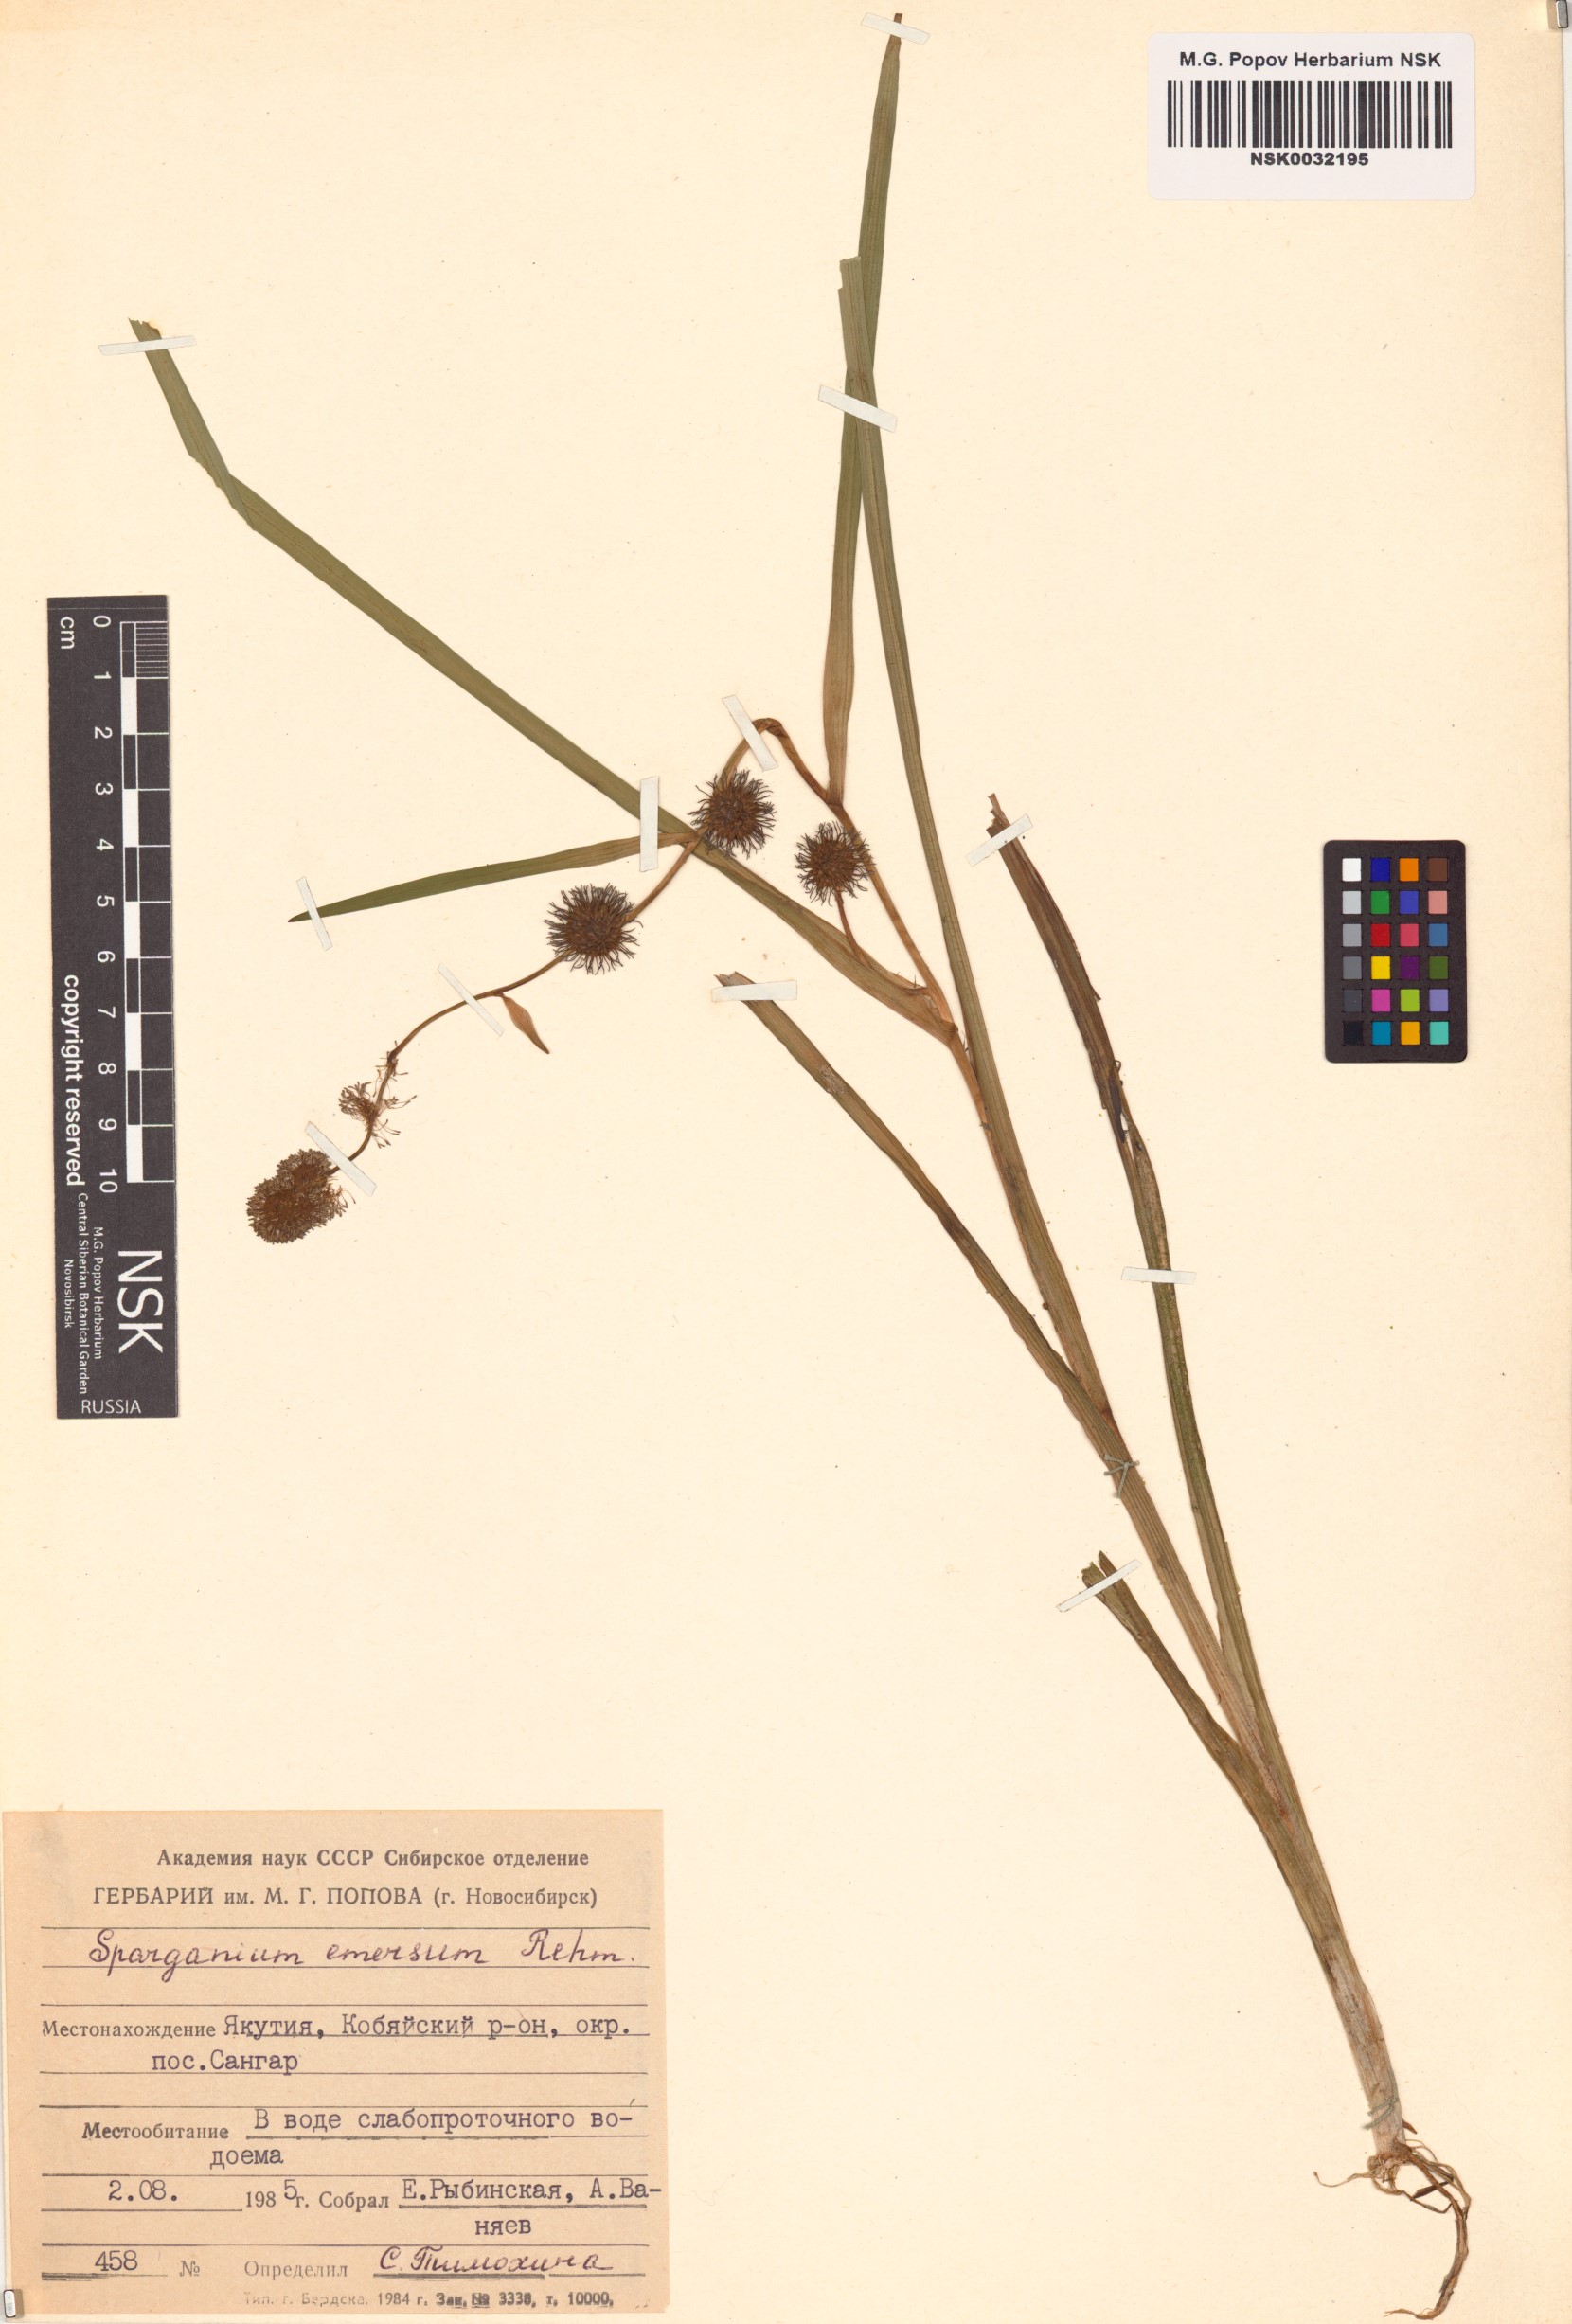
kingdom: Plantae
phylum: Tracheophyta
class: Liliopsida
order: Poales
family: Typhaceae
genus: Sparganium
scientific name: Sparganium emersum
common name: Unbranched bur-reed
